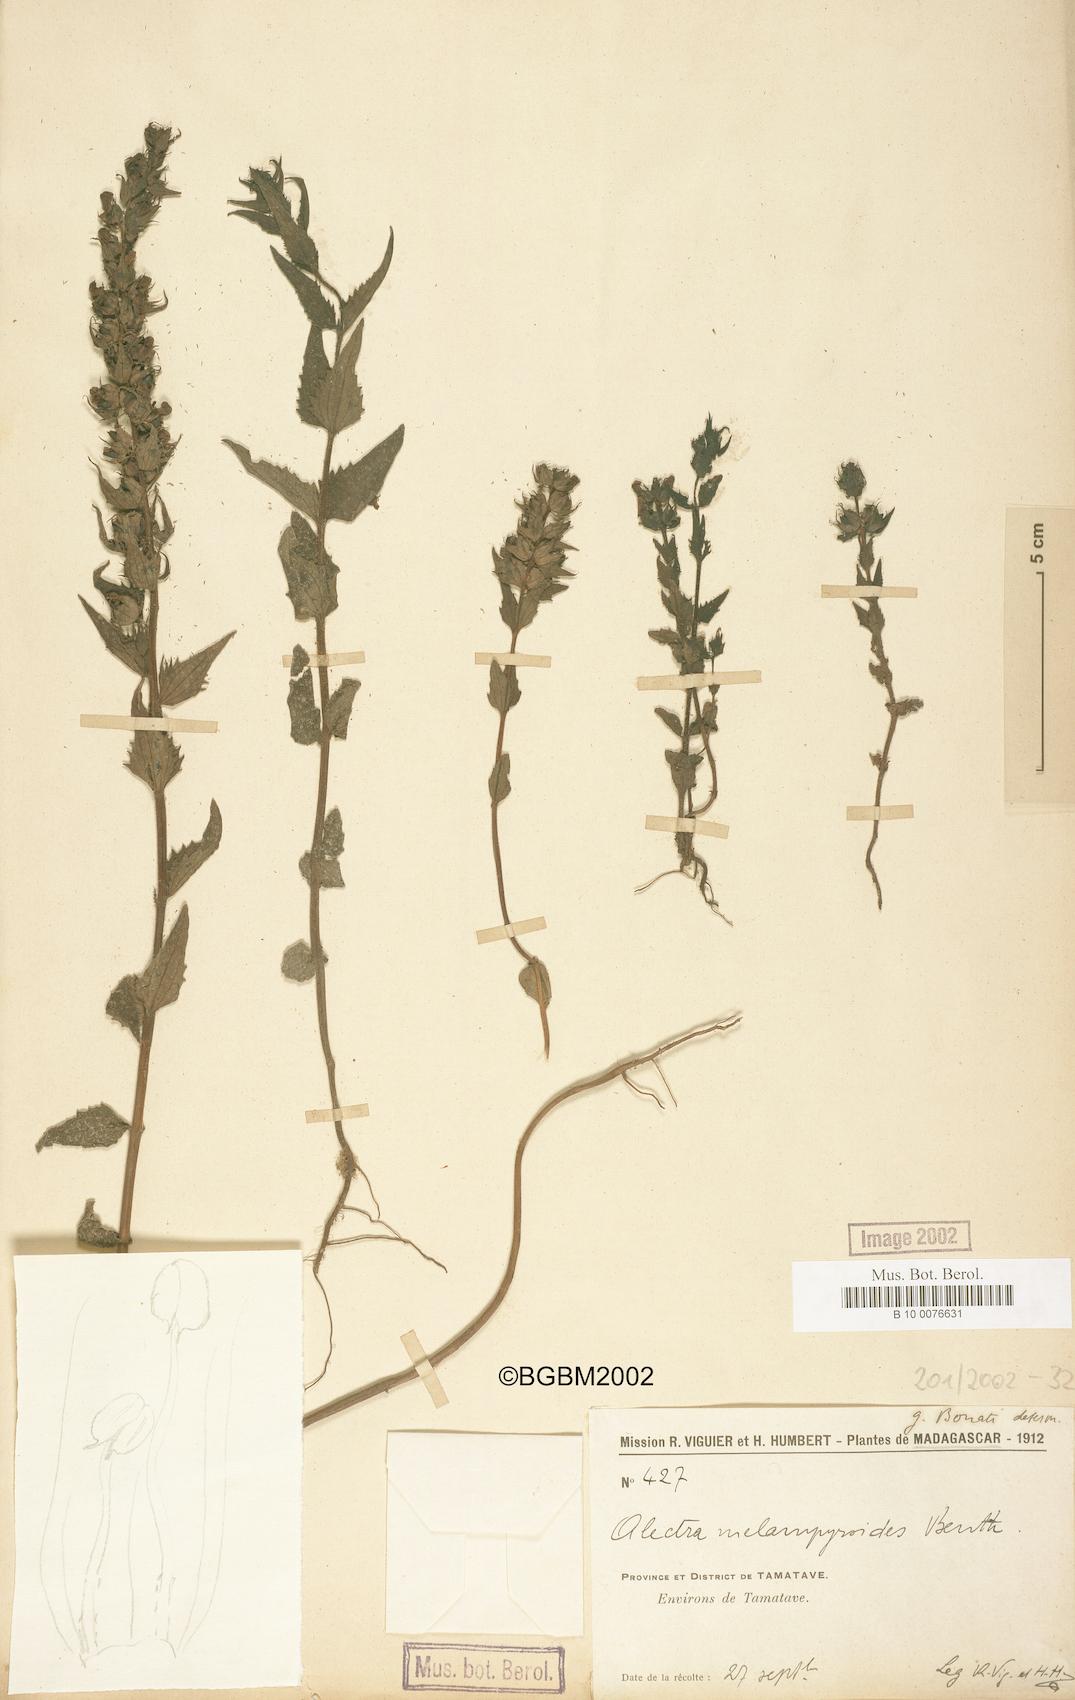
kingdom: Plantae
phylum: Tracheophyta
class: Magnoliopsida
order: Lamiales
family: Orobanchaceae
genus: Alectra
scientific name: Alectra sessiliflora
